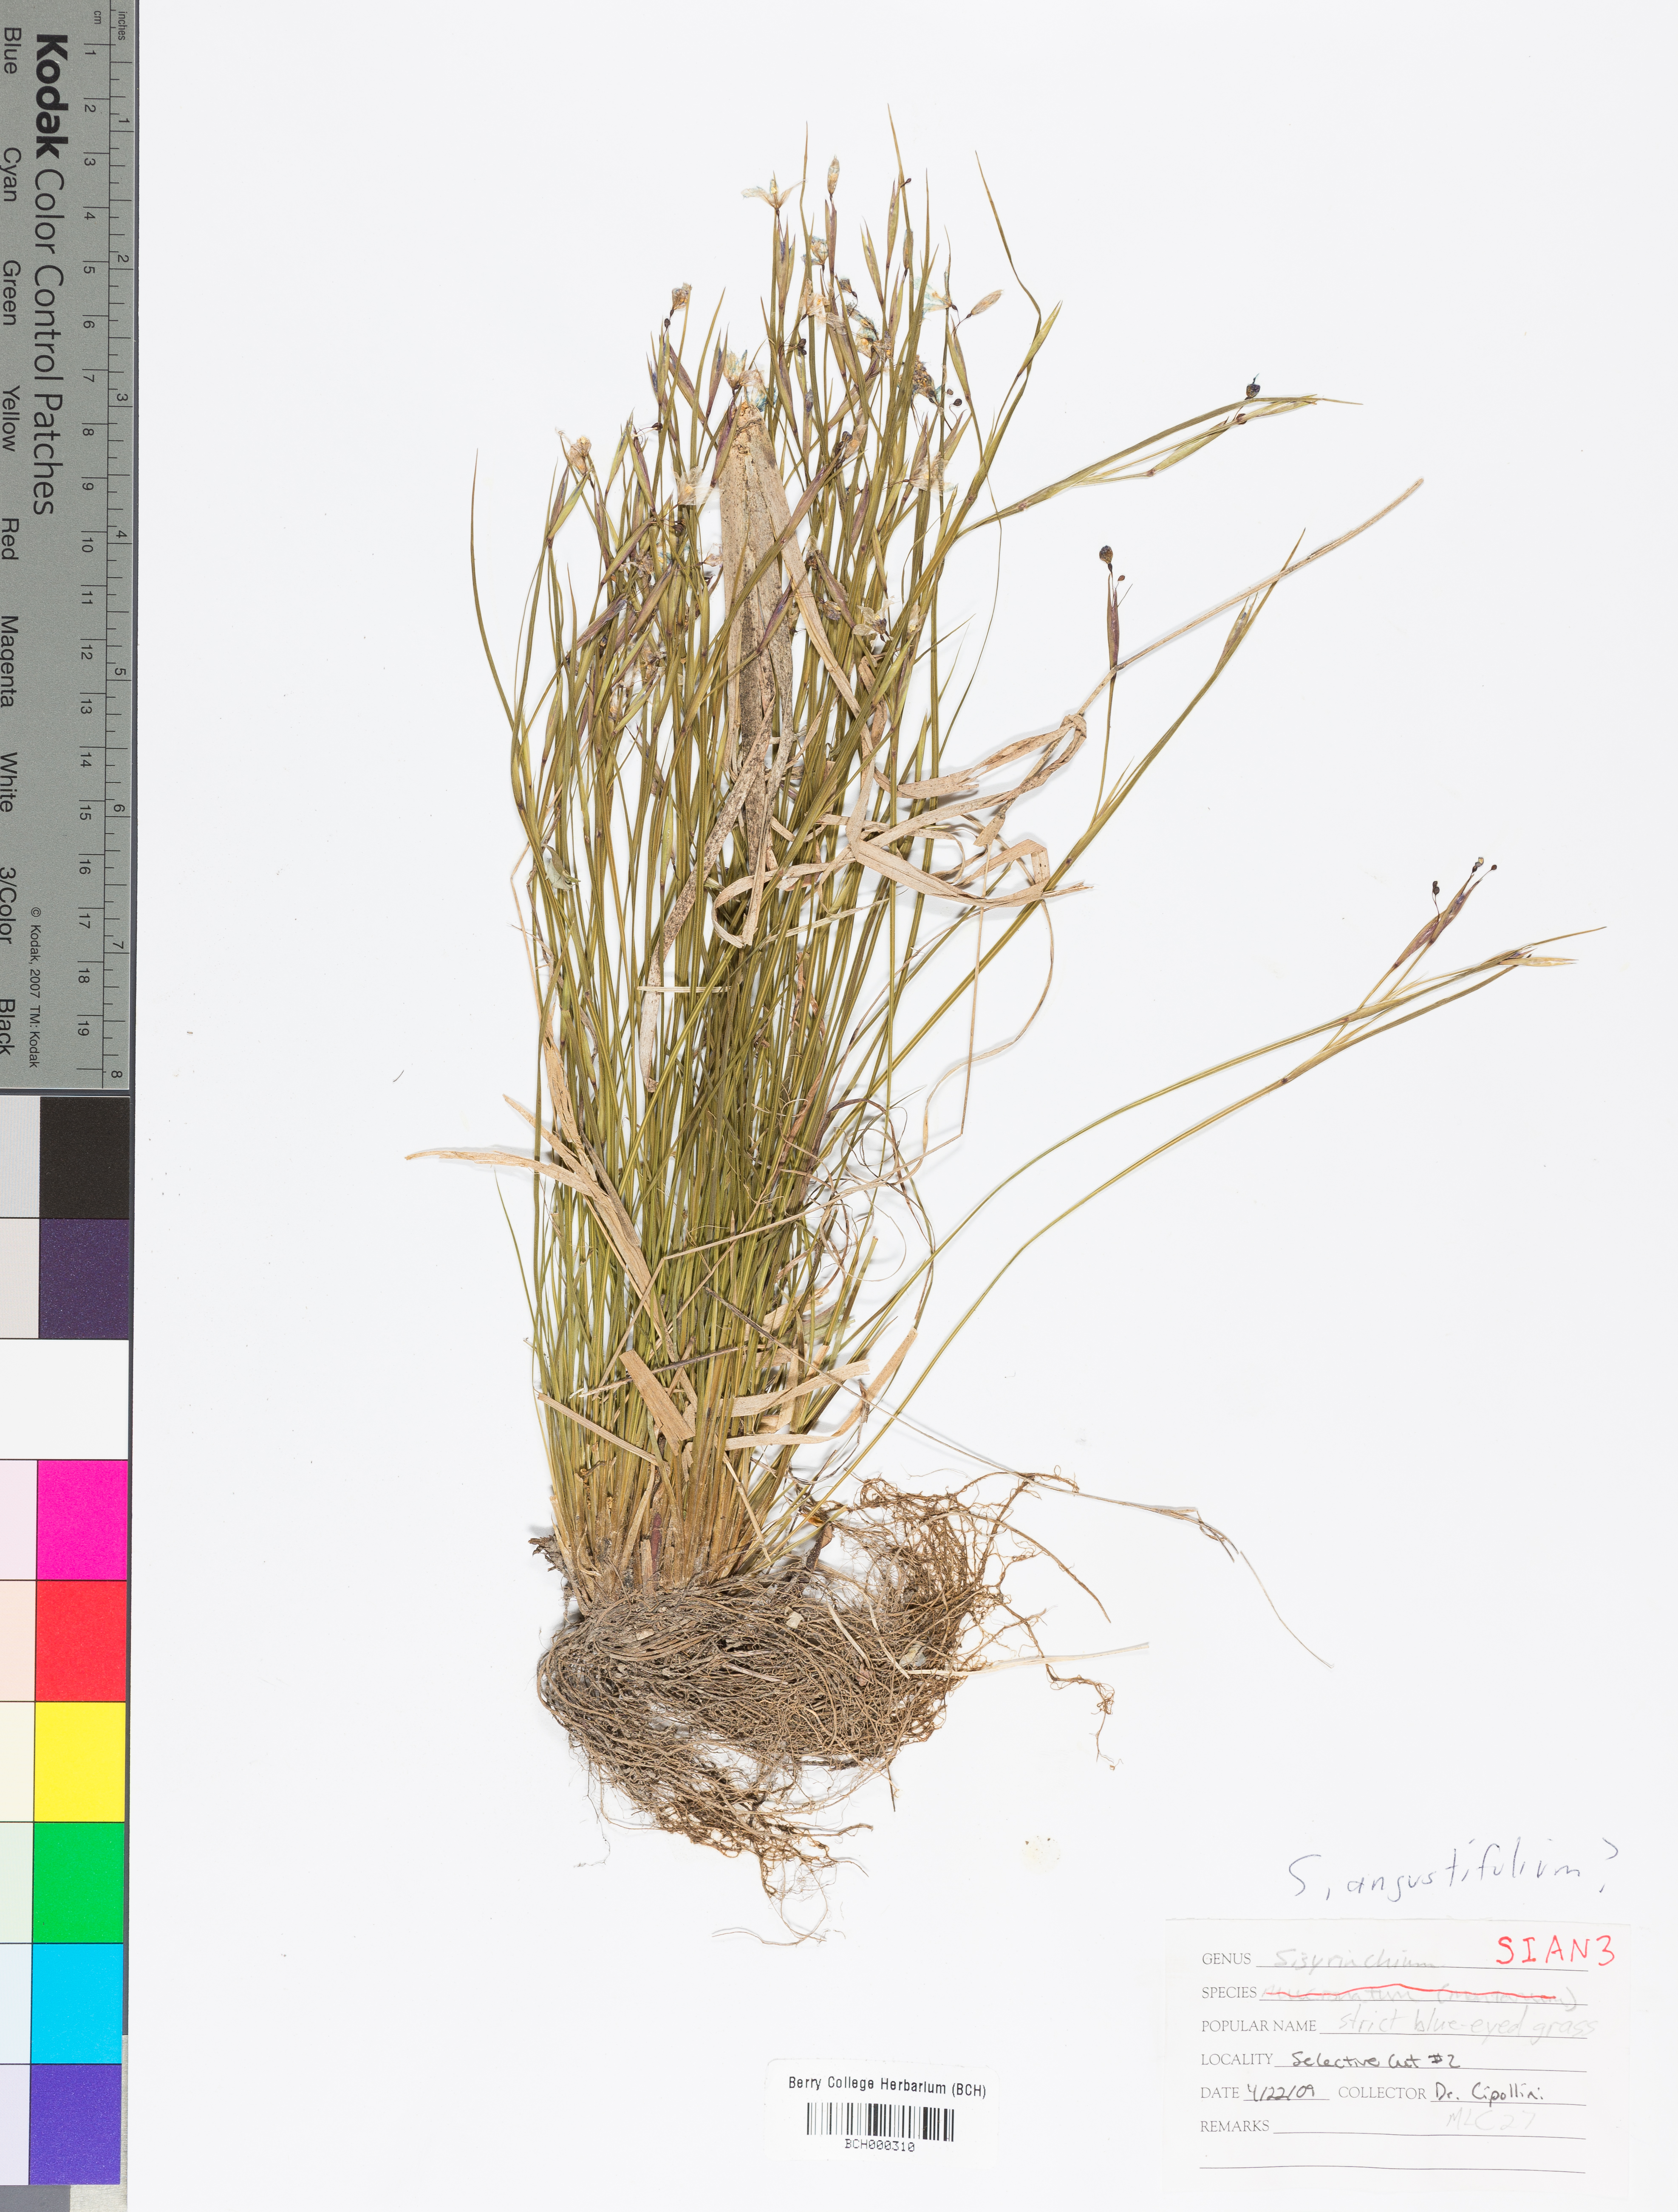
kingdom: Plantae
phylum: Tracheophyta
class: Liliopsida
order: Asparagales
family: Iridaceae
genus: Sisyrinchium
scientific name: Sisyrinchium angustifolium
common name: Narrow-leaf blue-eyed-grass
